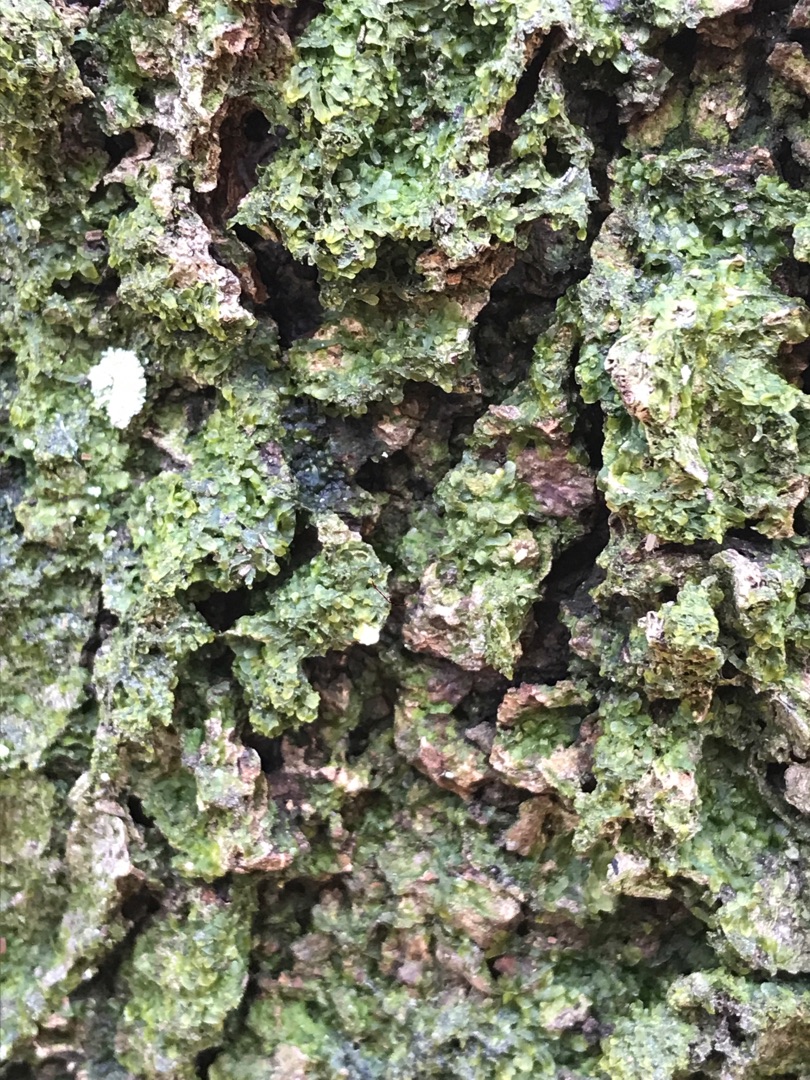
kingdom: Plantae
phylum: Marchantiophyta
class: Jungermanniopsida
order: Metzgeriales
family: Metzgeriaceae
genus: Metzgeria
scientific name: Metzgeria furcata
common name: Almindelig gaffelløv
